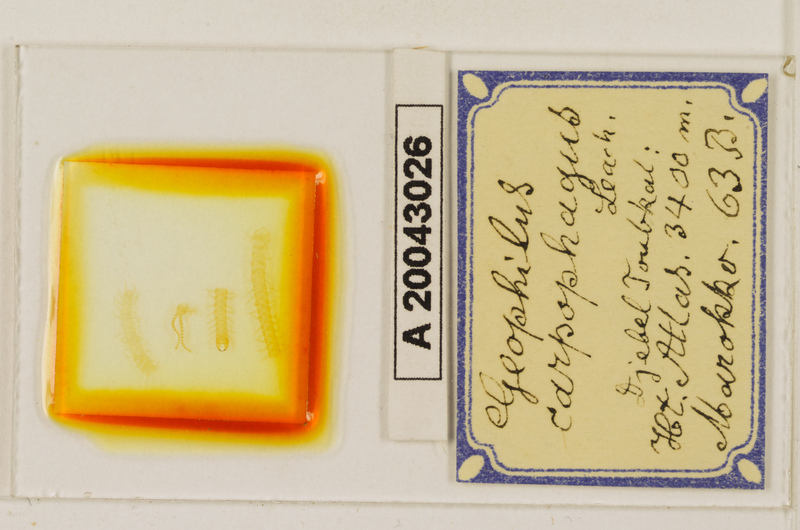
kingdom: Animalia
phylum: Arthropoda
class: Chilopoda
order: Geophilomorpha
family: Geophilidae
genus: Geophilus
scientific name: Geophilus carpophagus
